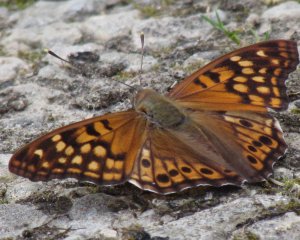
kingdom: Animalia
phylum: Arthropoda
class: Insecta
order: Lepidoptera
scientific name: Lepidoptera
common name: Butterflies
